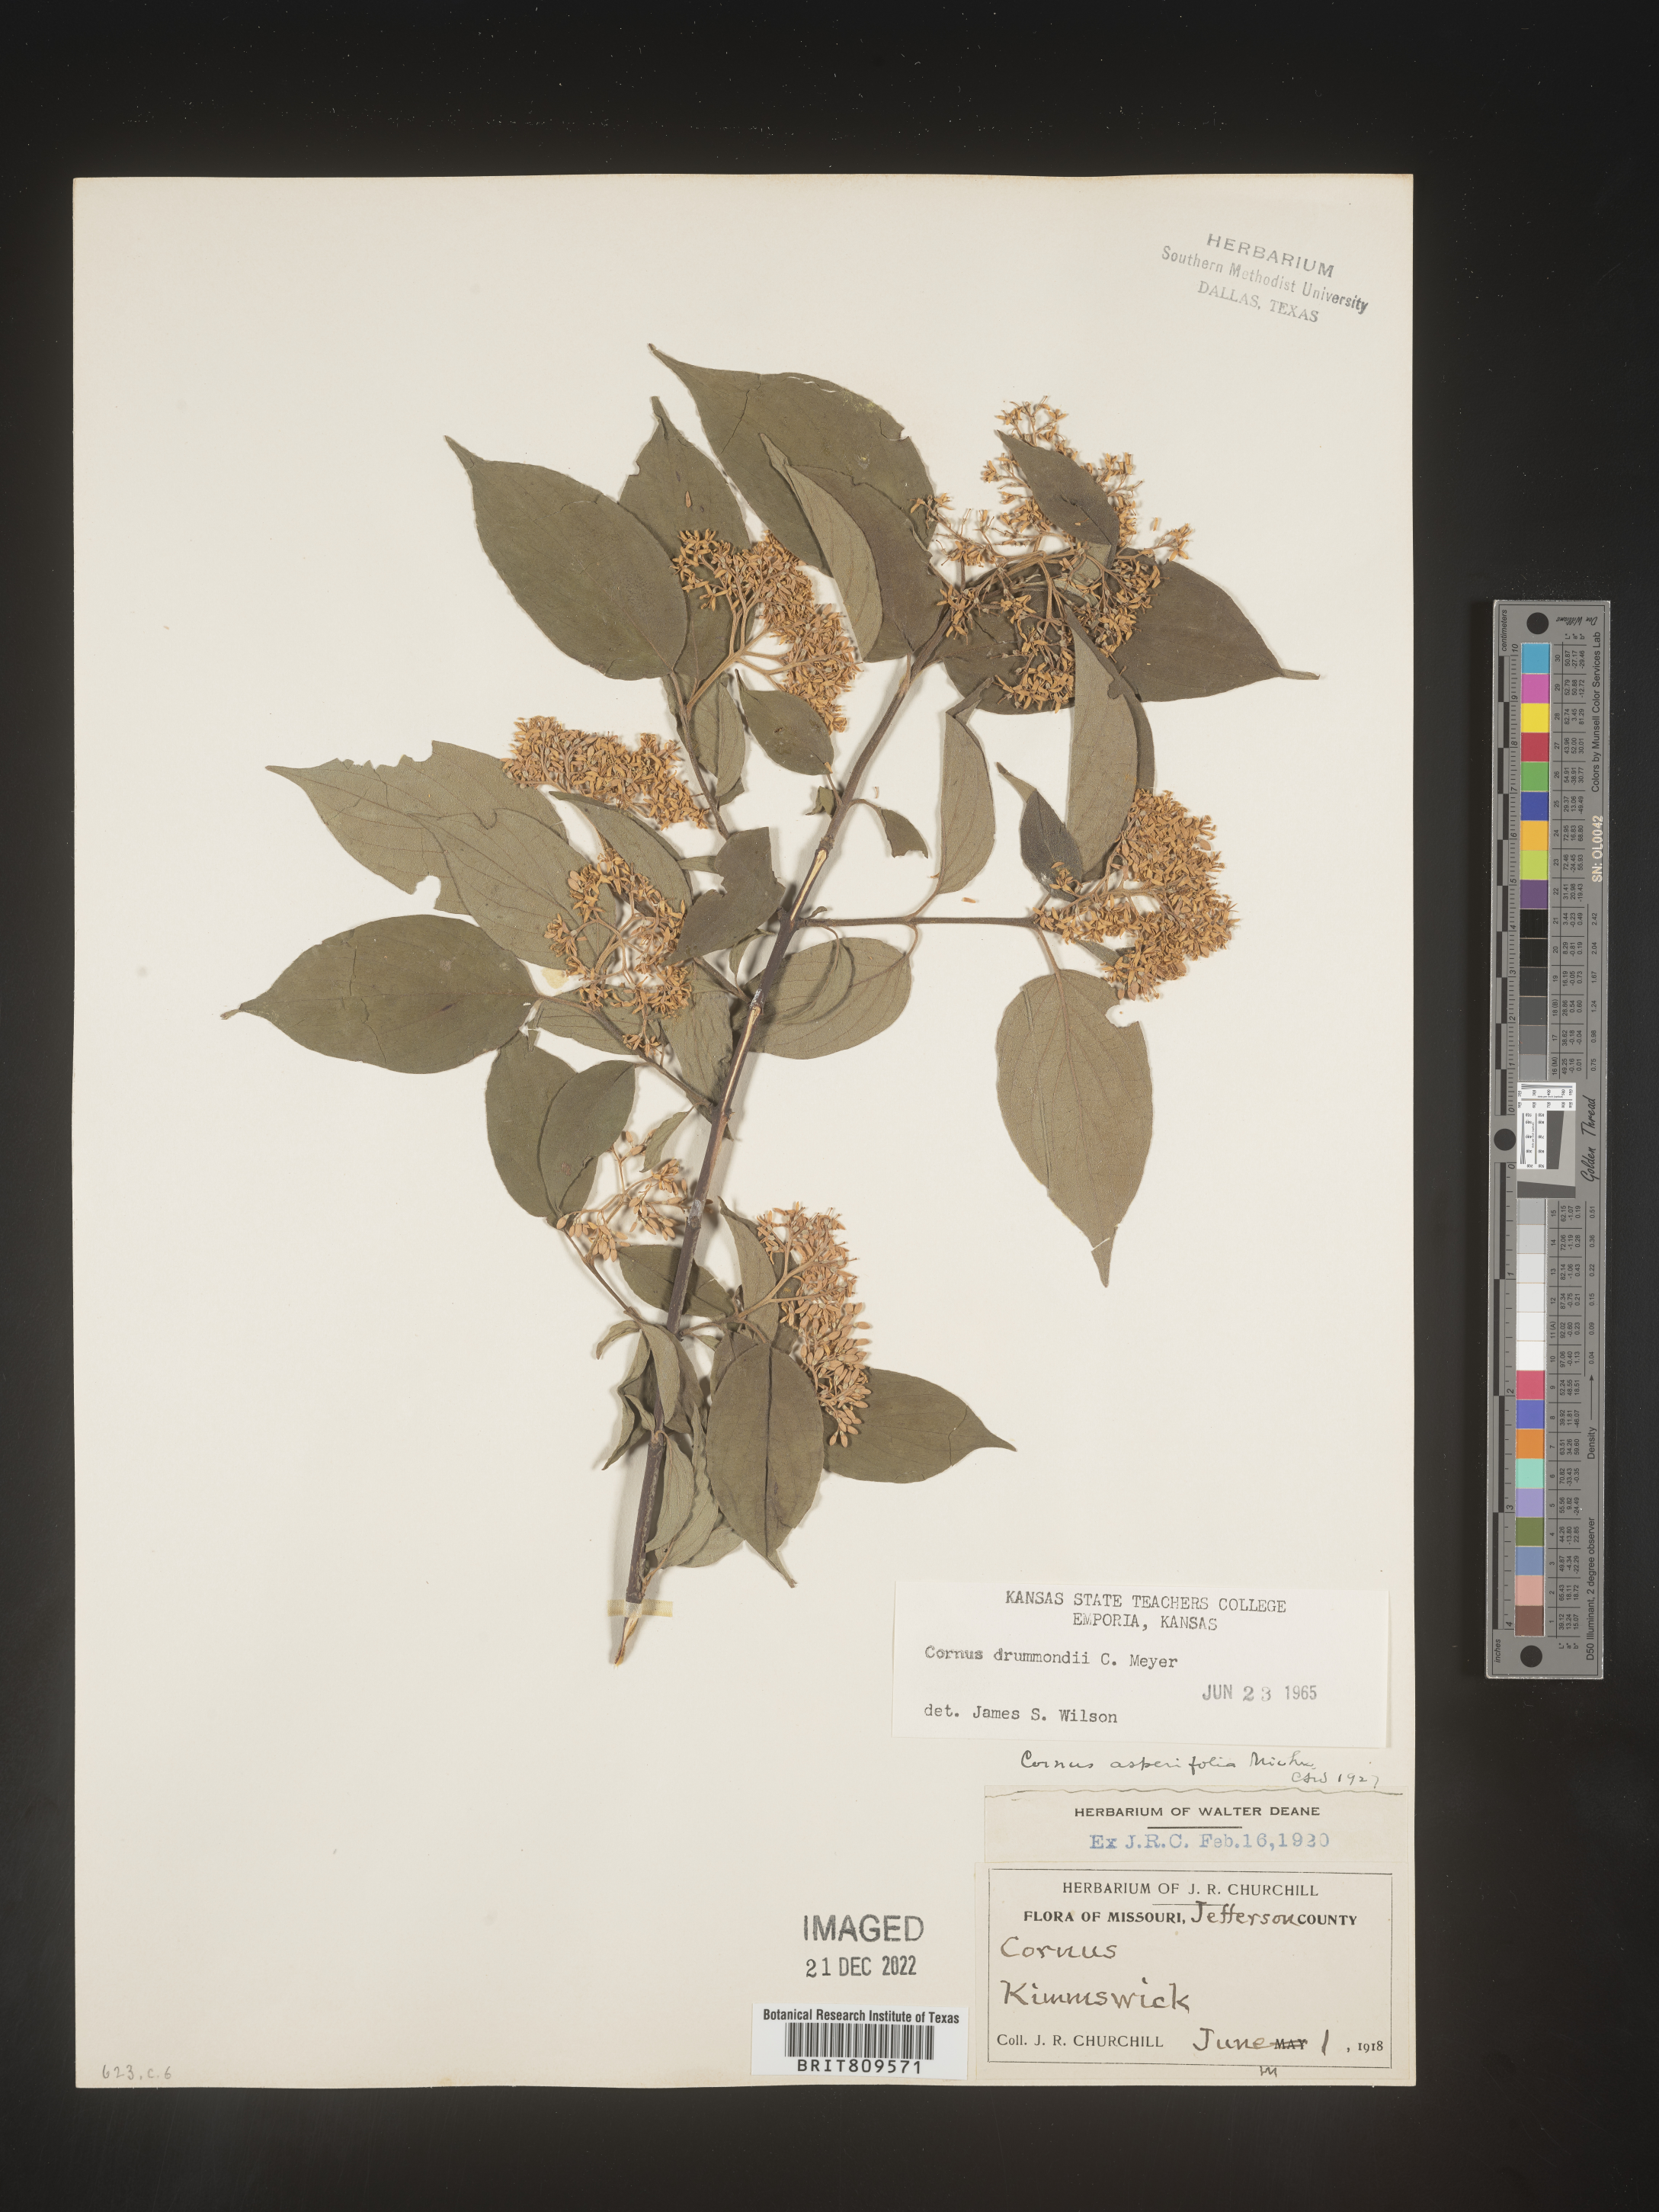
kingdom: Plantae
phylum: Tracheophyta
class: Magnoliopsida
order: Cornales
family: Cornaceae
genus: Cornus
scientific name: Cornus drummondii
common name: Rough-leaf dogwood
